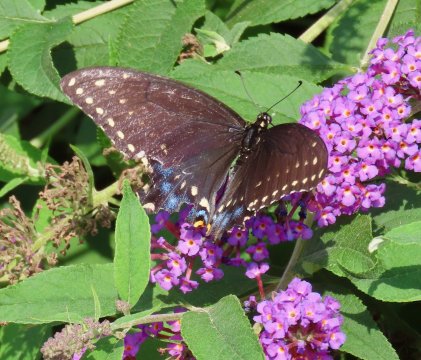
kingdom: Animalia
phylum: Arthropoda
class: Insecta
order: Lepidoptera
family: Papilionidae
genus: Papilio
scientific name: Papilio polyxenes
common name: Black Swallowtail
